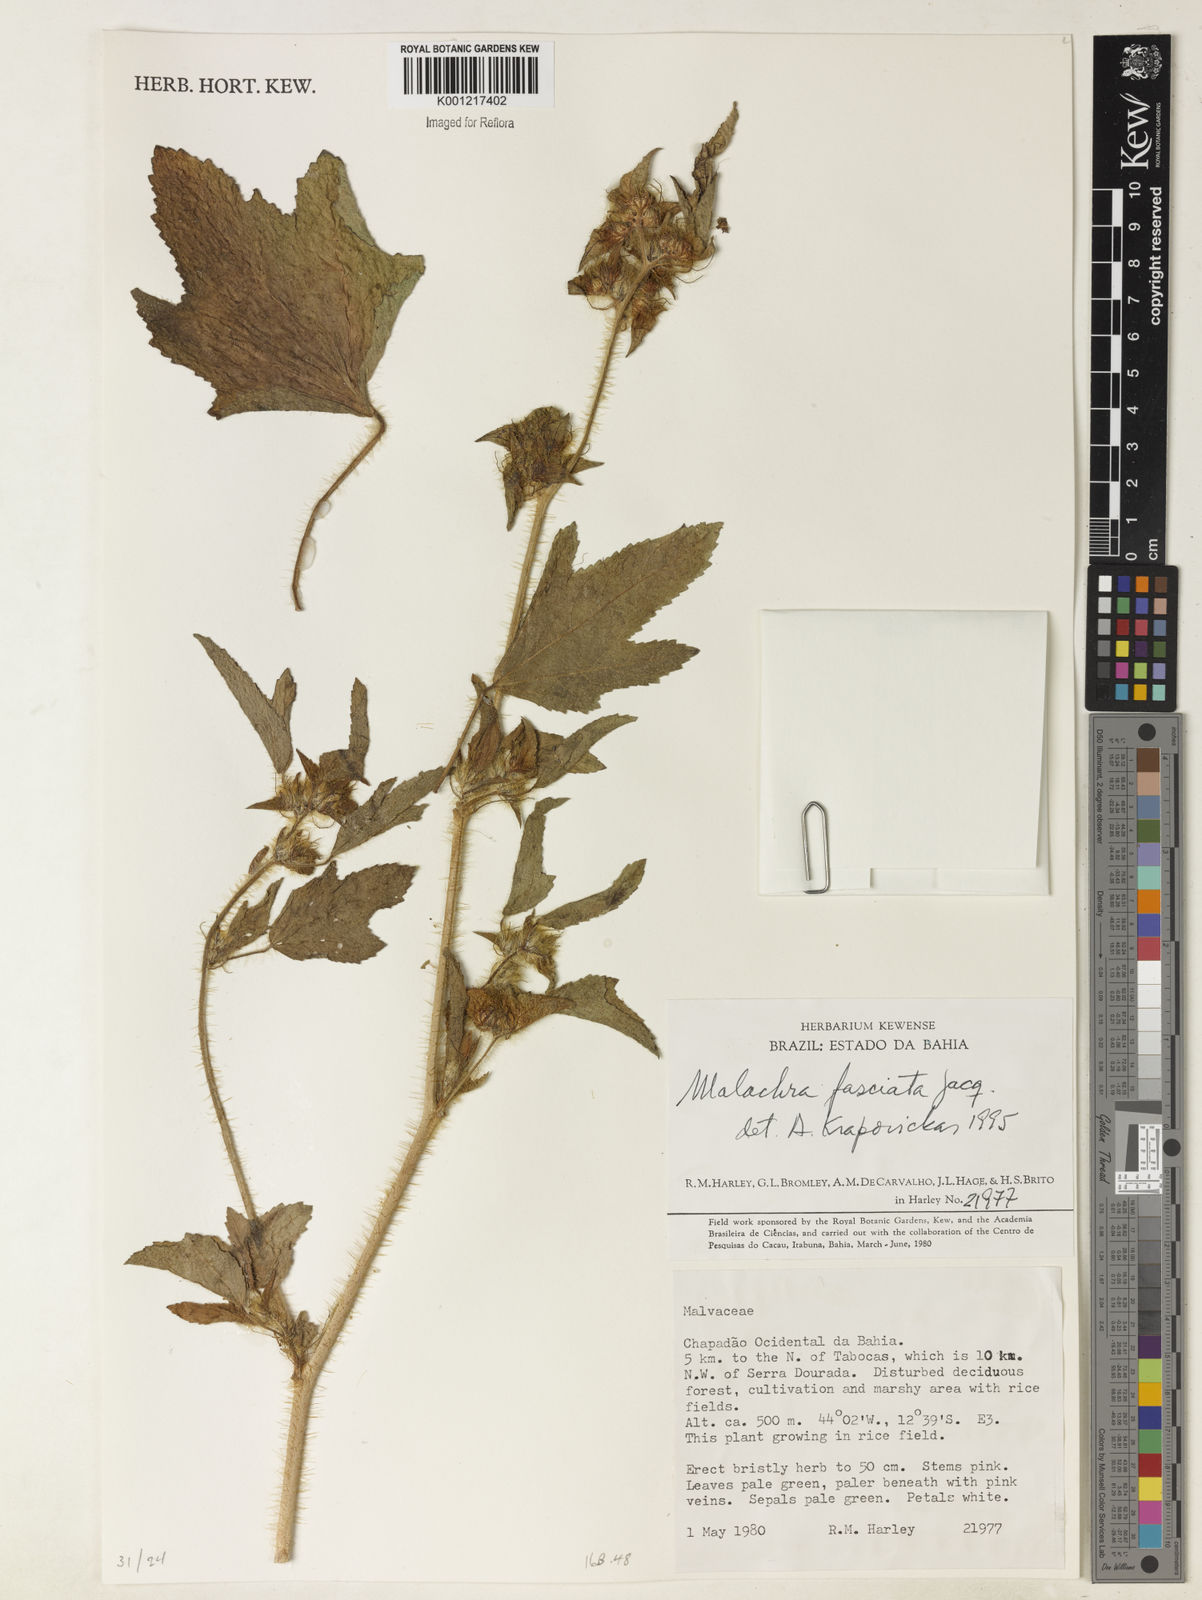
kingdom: Plantae
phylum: Tracheophyta
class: Magnoliopsida
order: Malvales
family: Malvaceae
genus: Malachra
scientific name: Malachra fasciata
